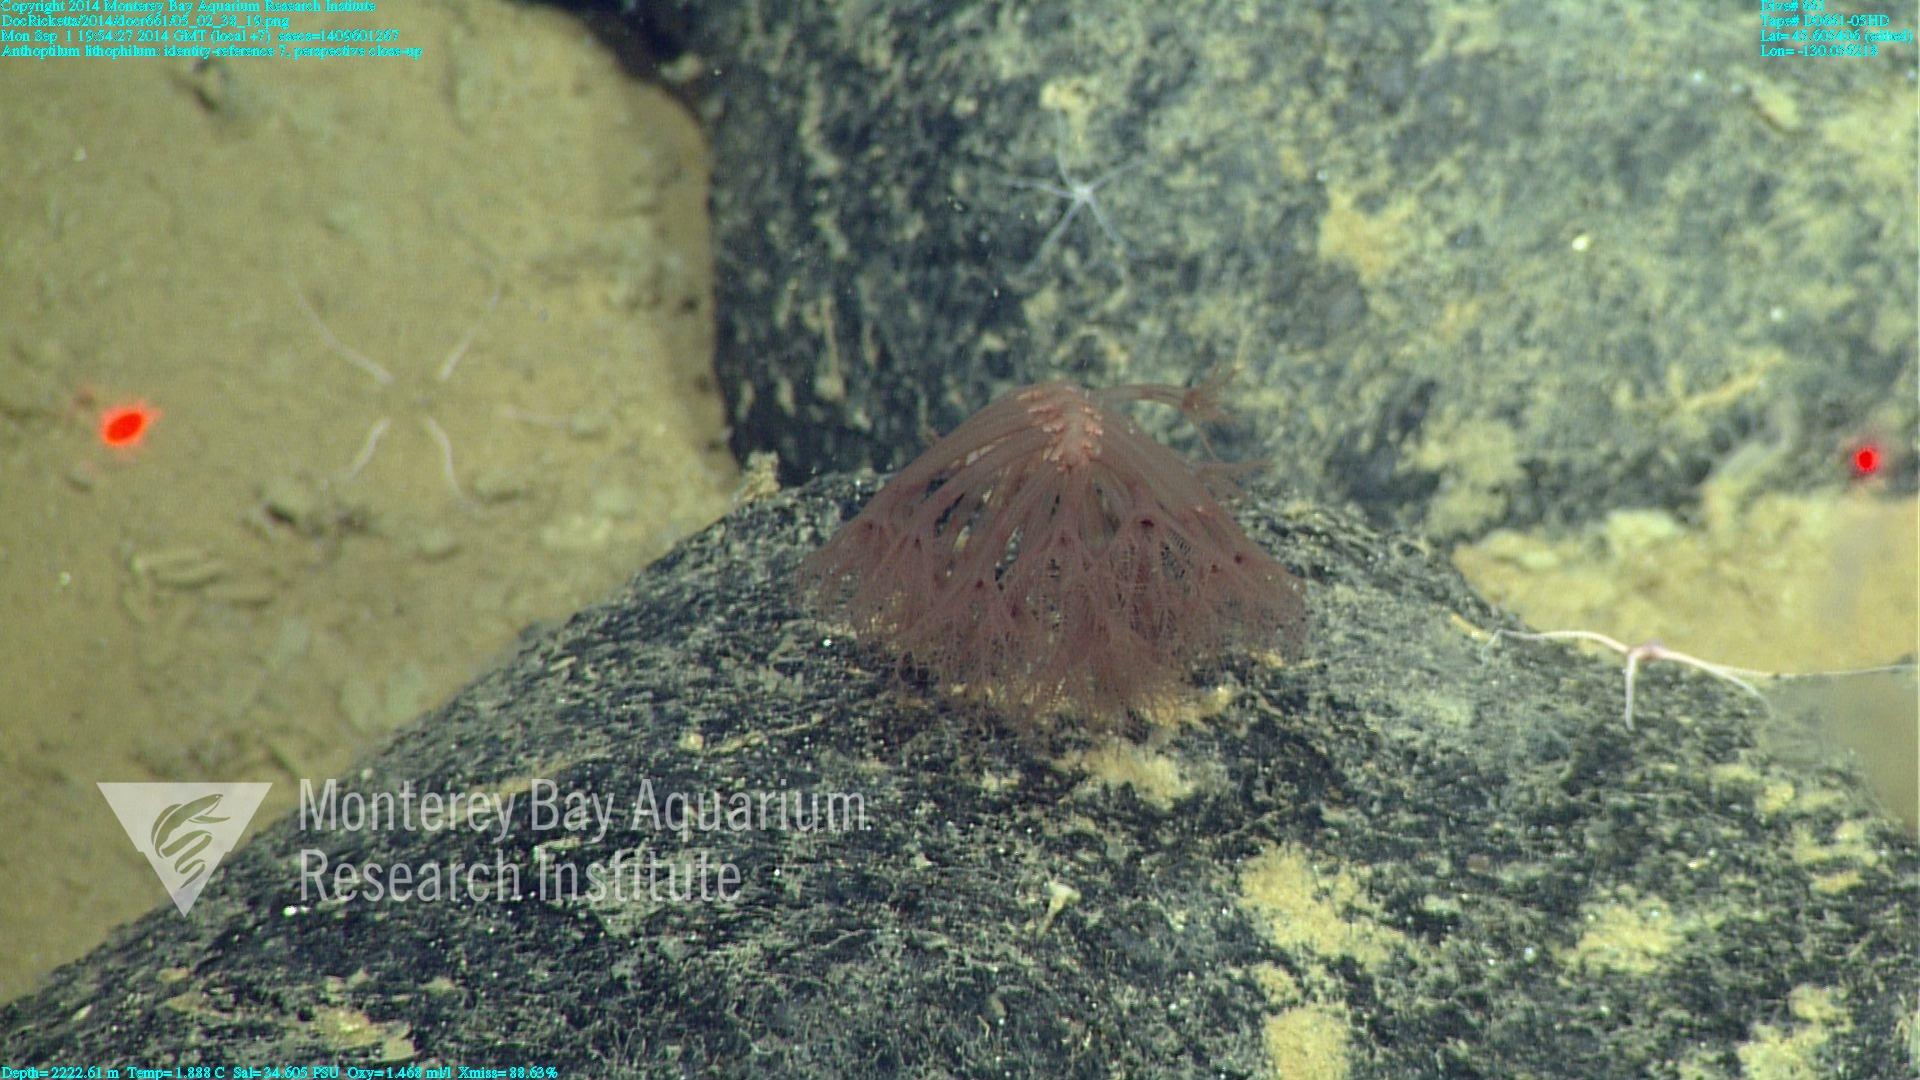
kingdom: Animalia
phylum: Cnidaria
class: Anthozoa
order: Scleralcyonacea
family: Anthoptilidae
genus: Anthoptilum
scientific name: Anthoptilum lithophilum
